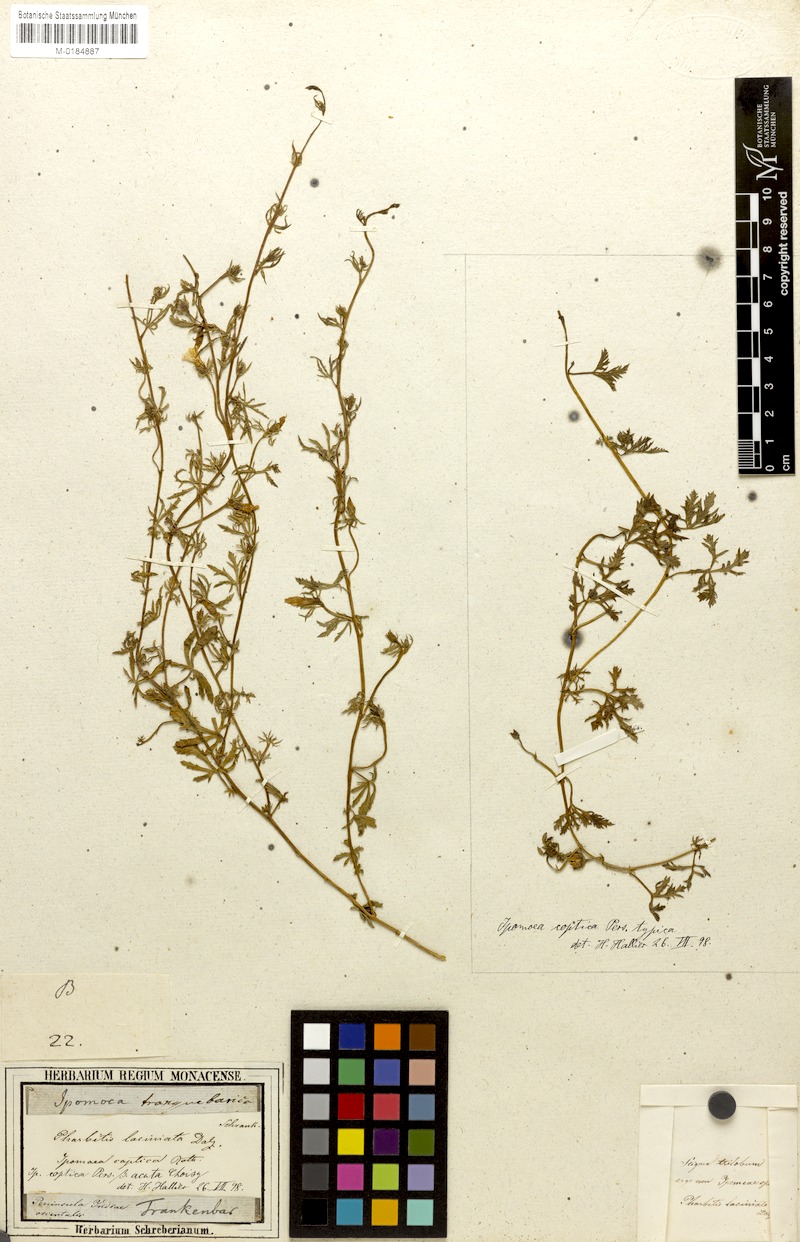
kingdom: Plantae
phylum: Tracheophyta
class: Magnoliopsida
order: Solanales
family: Convolvulaceae
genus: Ipomoea
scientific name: Ipomoea coptica
